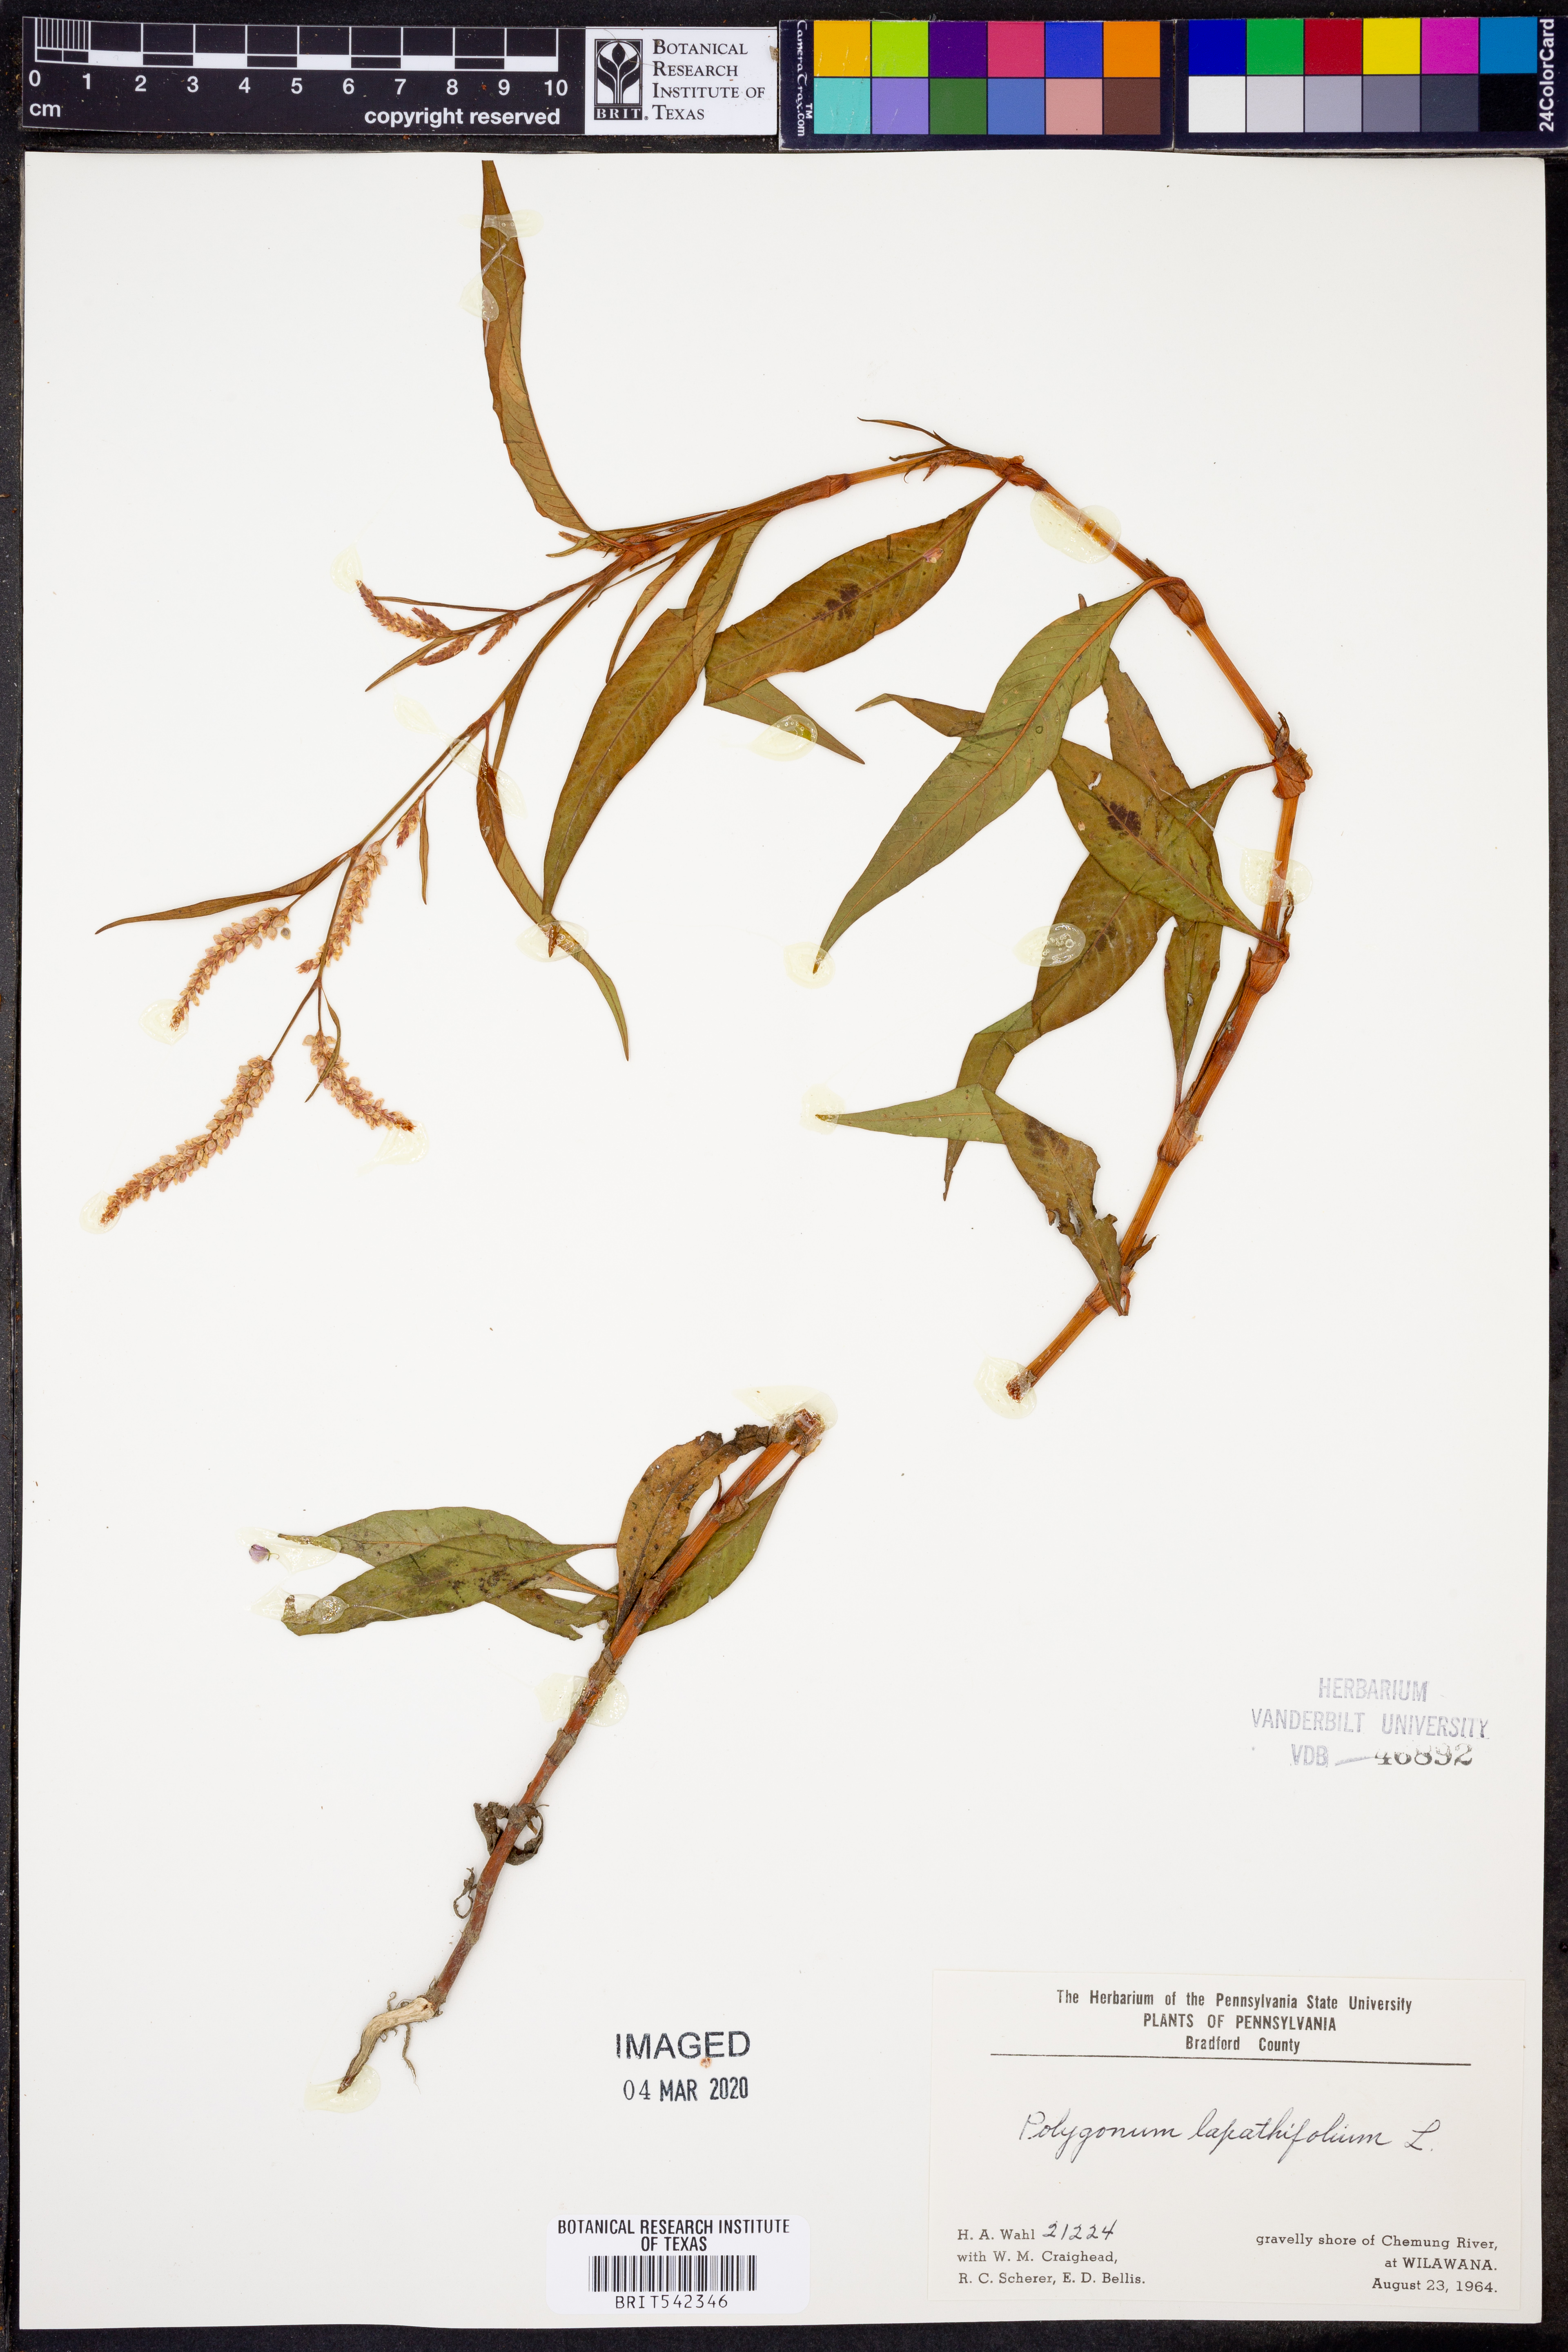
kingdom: Plantae
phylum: Tracheophyta
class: Magnoliopsida
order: Caryophyllales
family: Polygonaceae
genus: Persicaria
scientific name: Persicaria lapathifolia
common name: Curlytop knotweed
